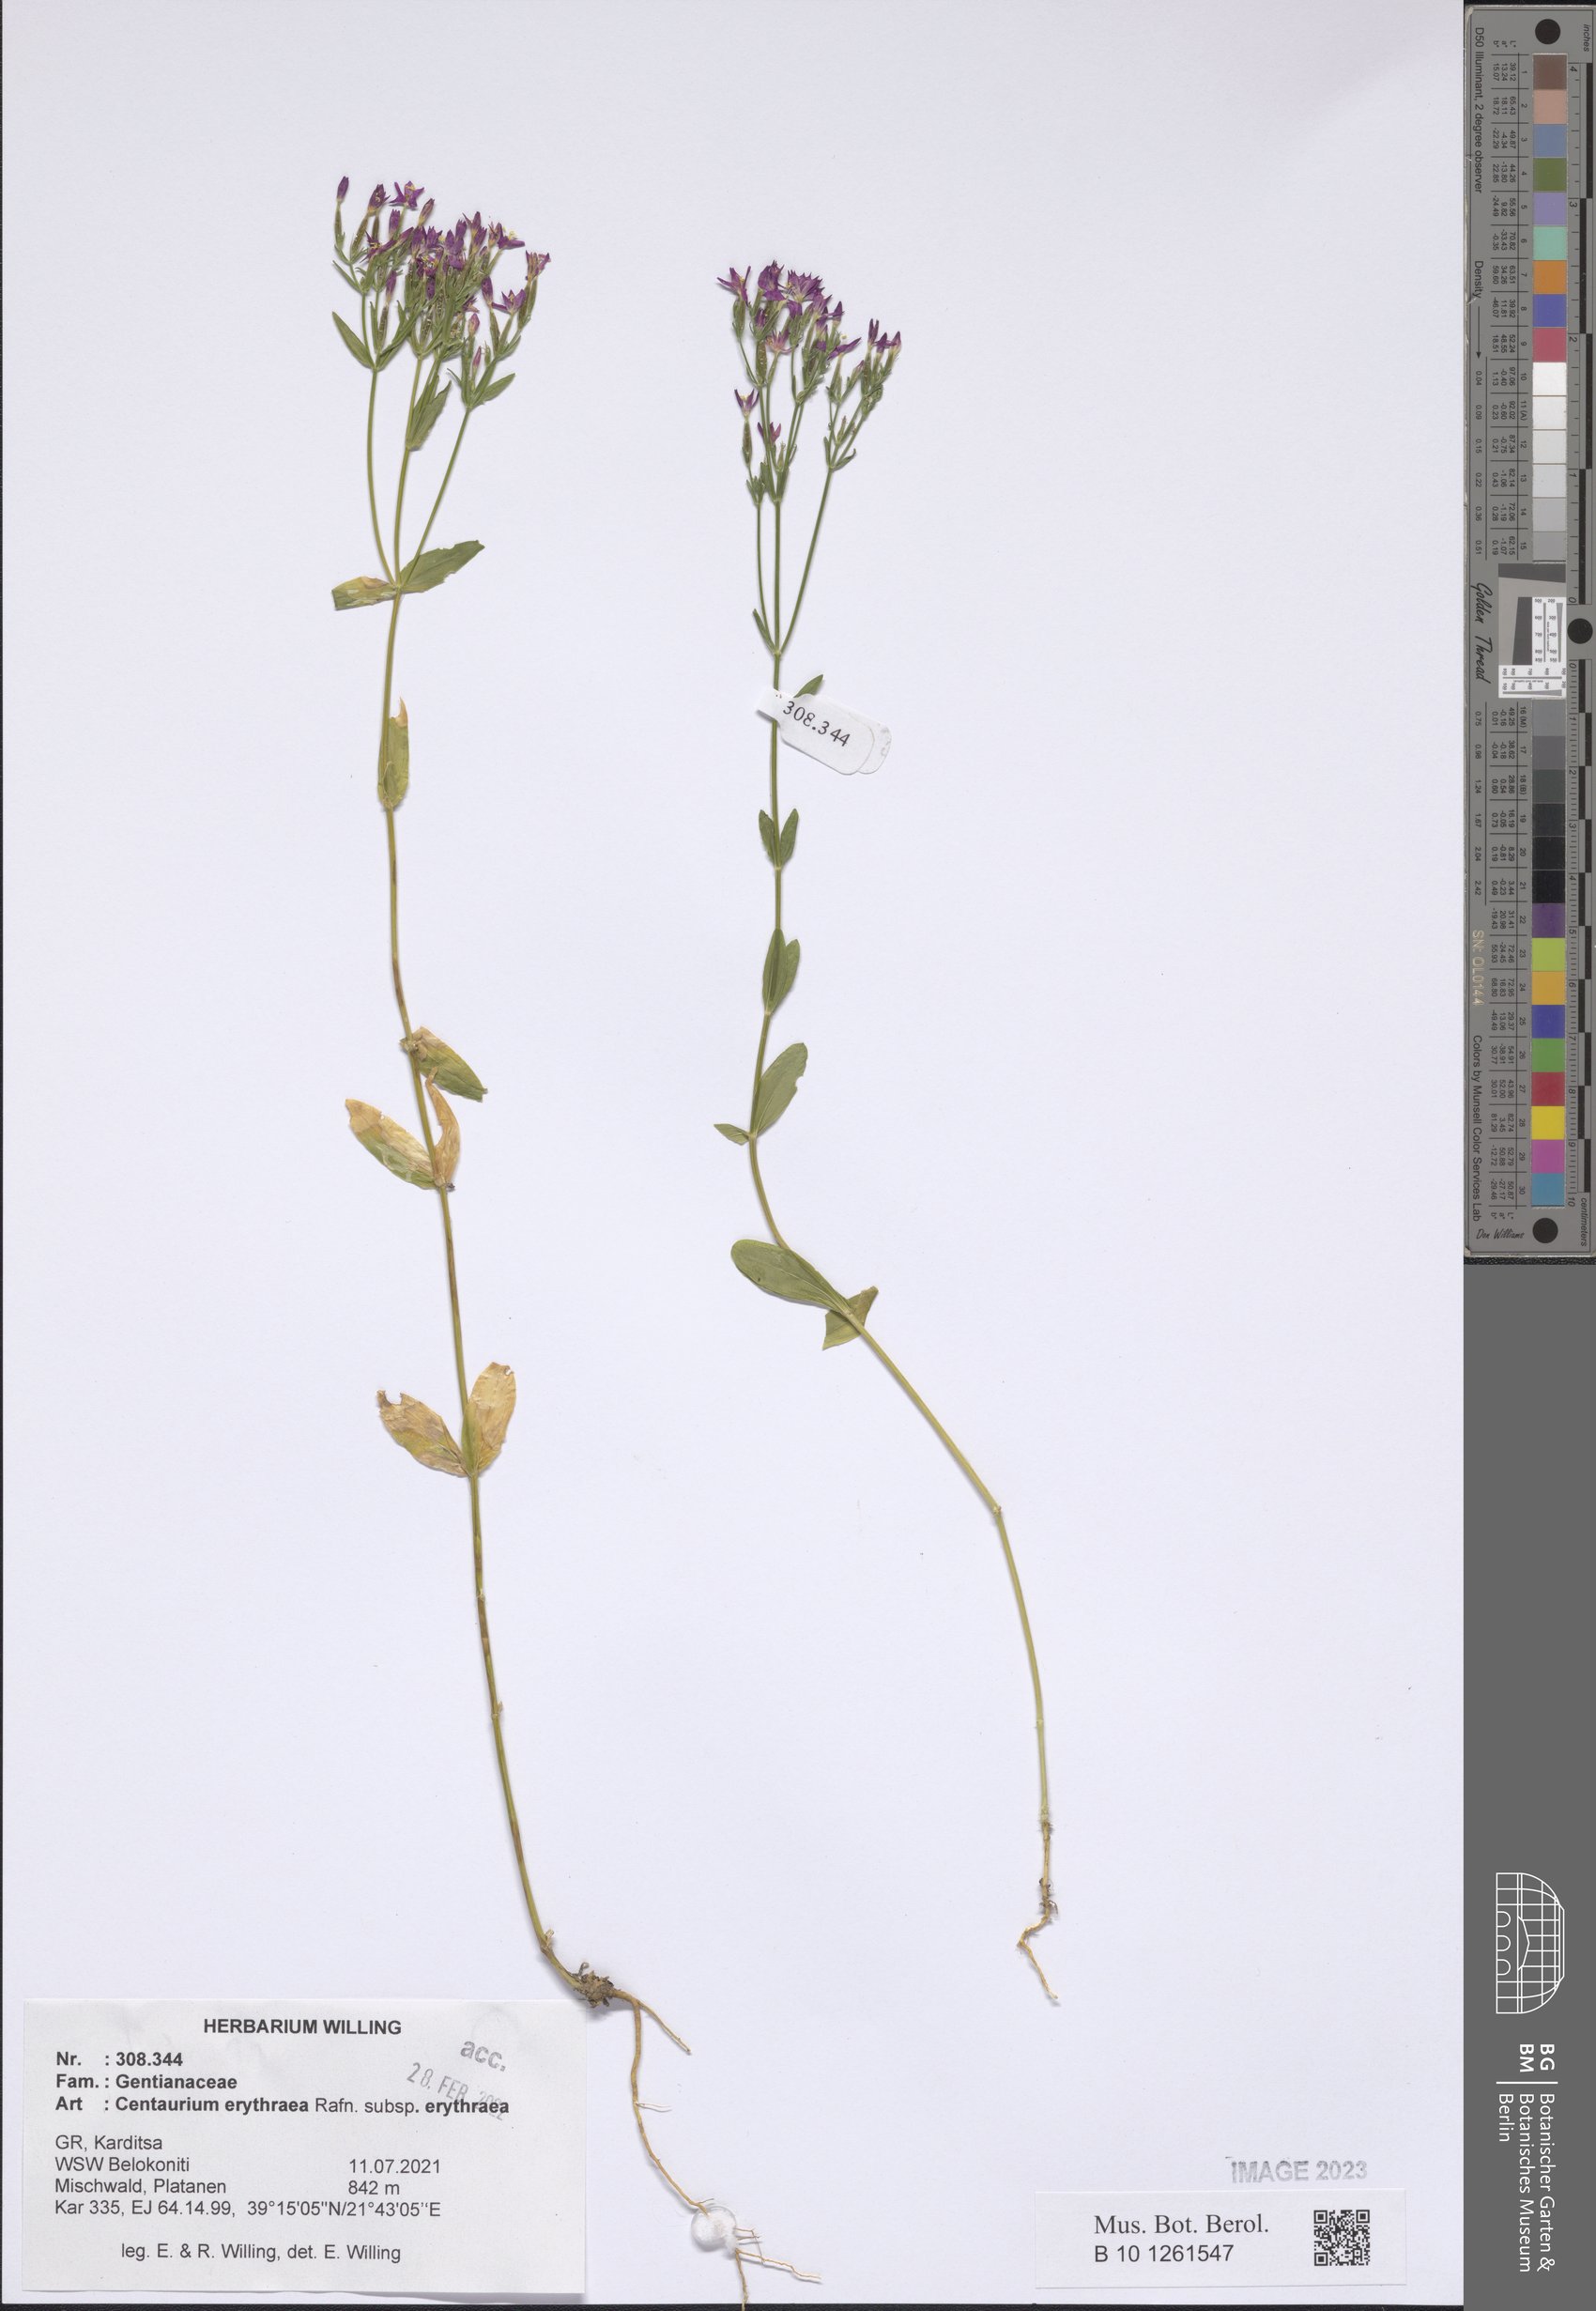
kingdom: Plantae
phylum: Tracheophyta
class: Magnoliopsida
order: Gentianales
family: Gentianaceae
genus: Centaurium
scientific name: Centaurium erythraea
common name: Common centaury
